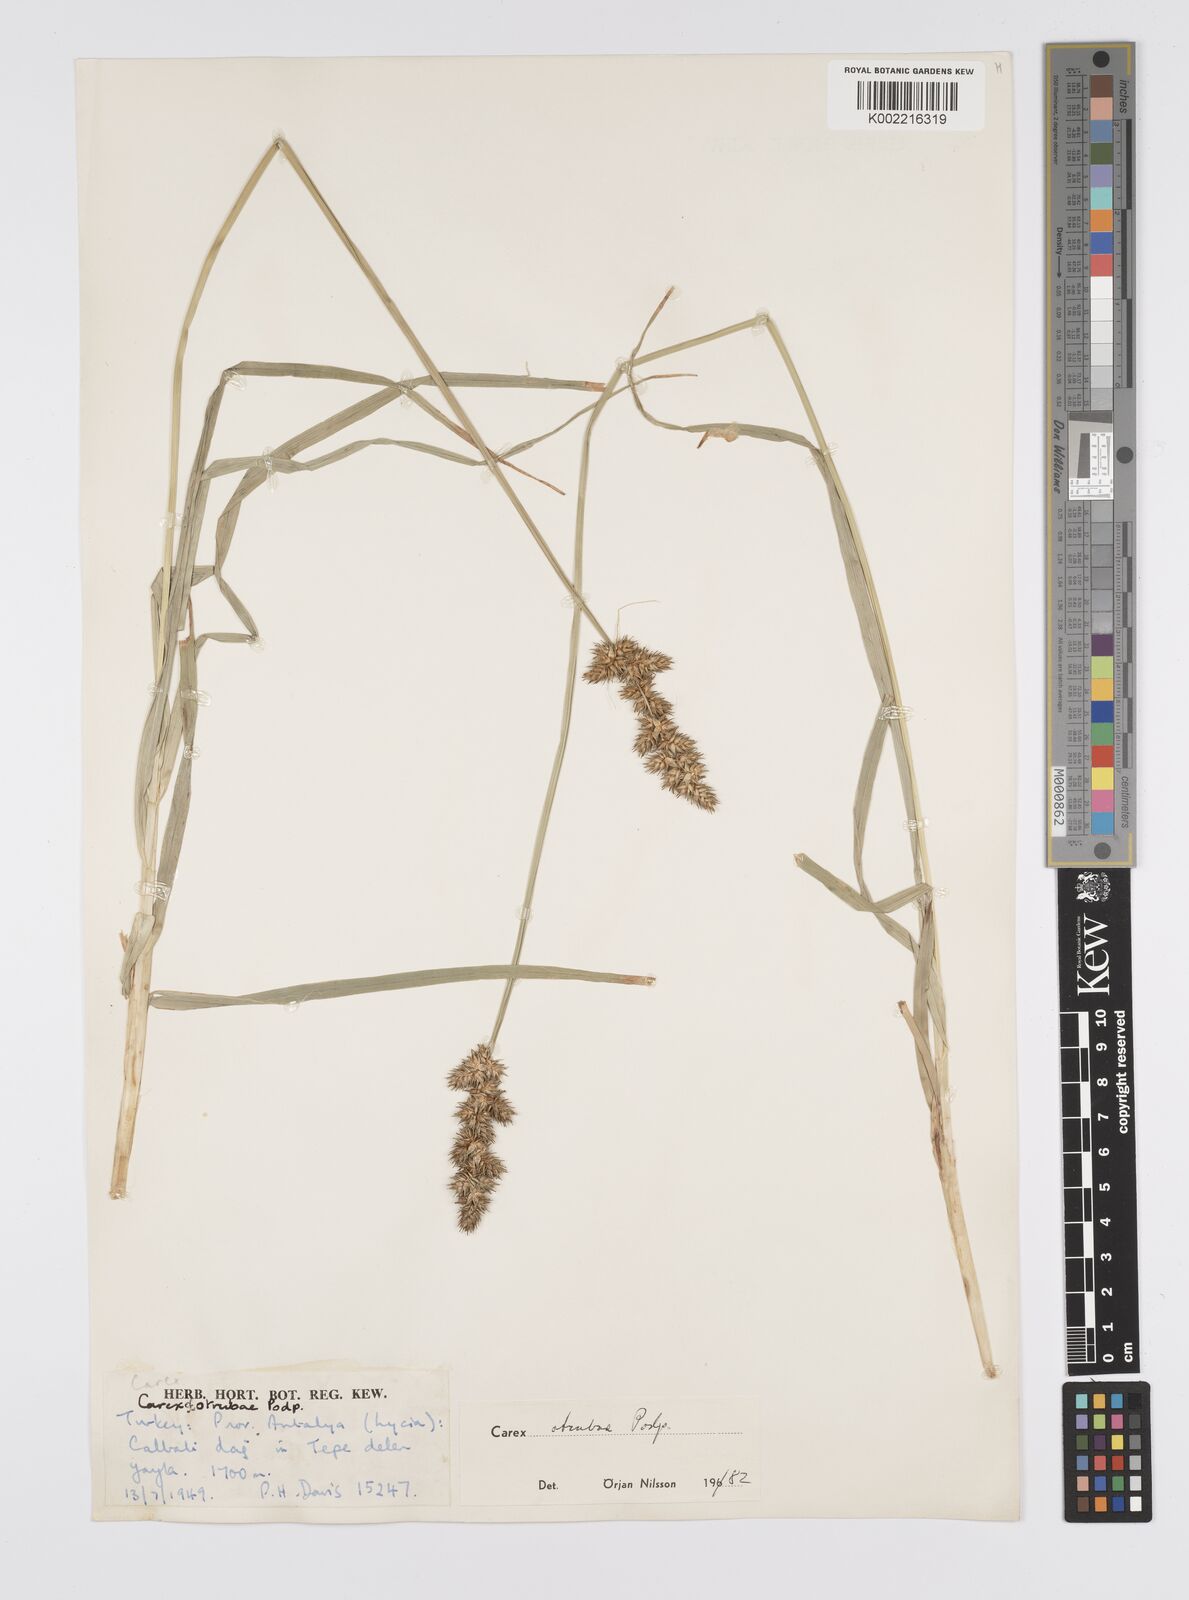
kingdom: Plantae
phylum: Tracheophyta
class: Liliopsida
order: Poales
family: Cyperaceae
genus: Carex
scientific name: Carex otrubae
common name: False fox-sedge
